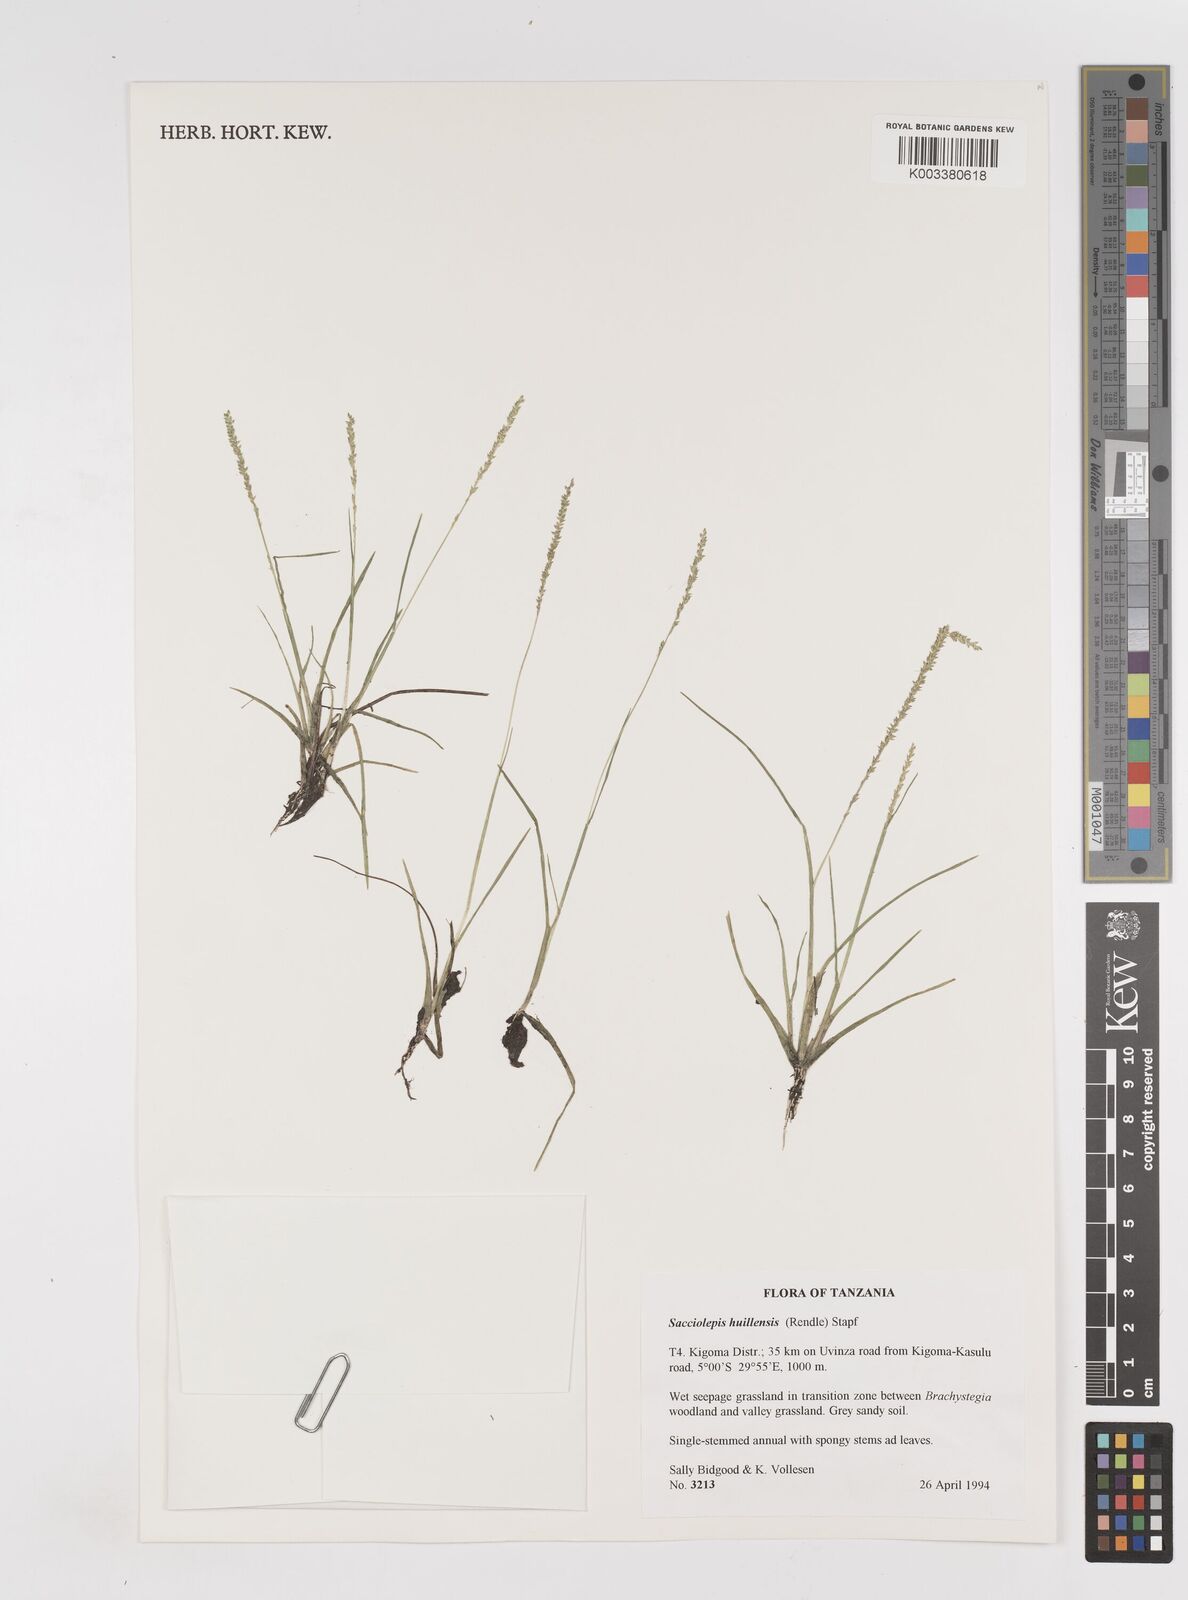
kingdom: Plantae
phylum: Tracheophyta
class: Liliopsida
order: Poales
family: Poaceae
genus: Sacciolepis
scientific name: Sacciolepis myosuroides
